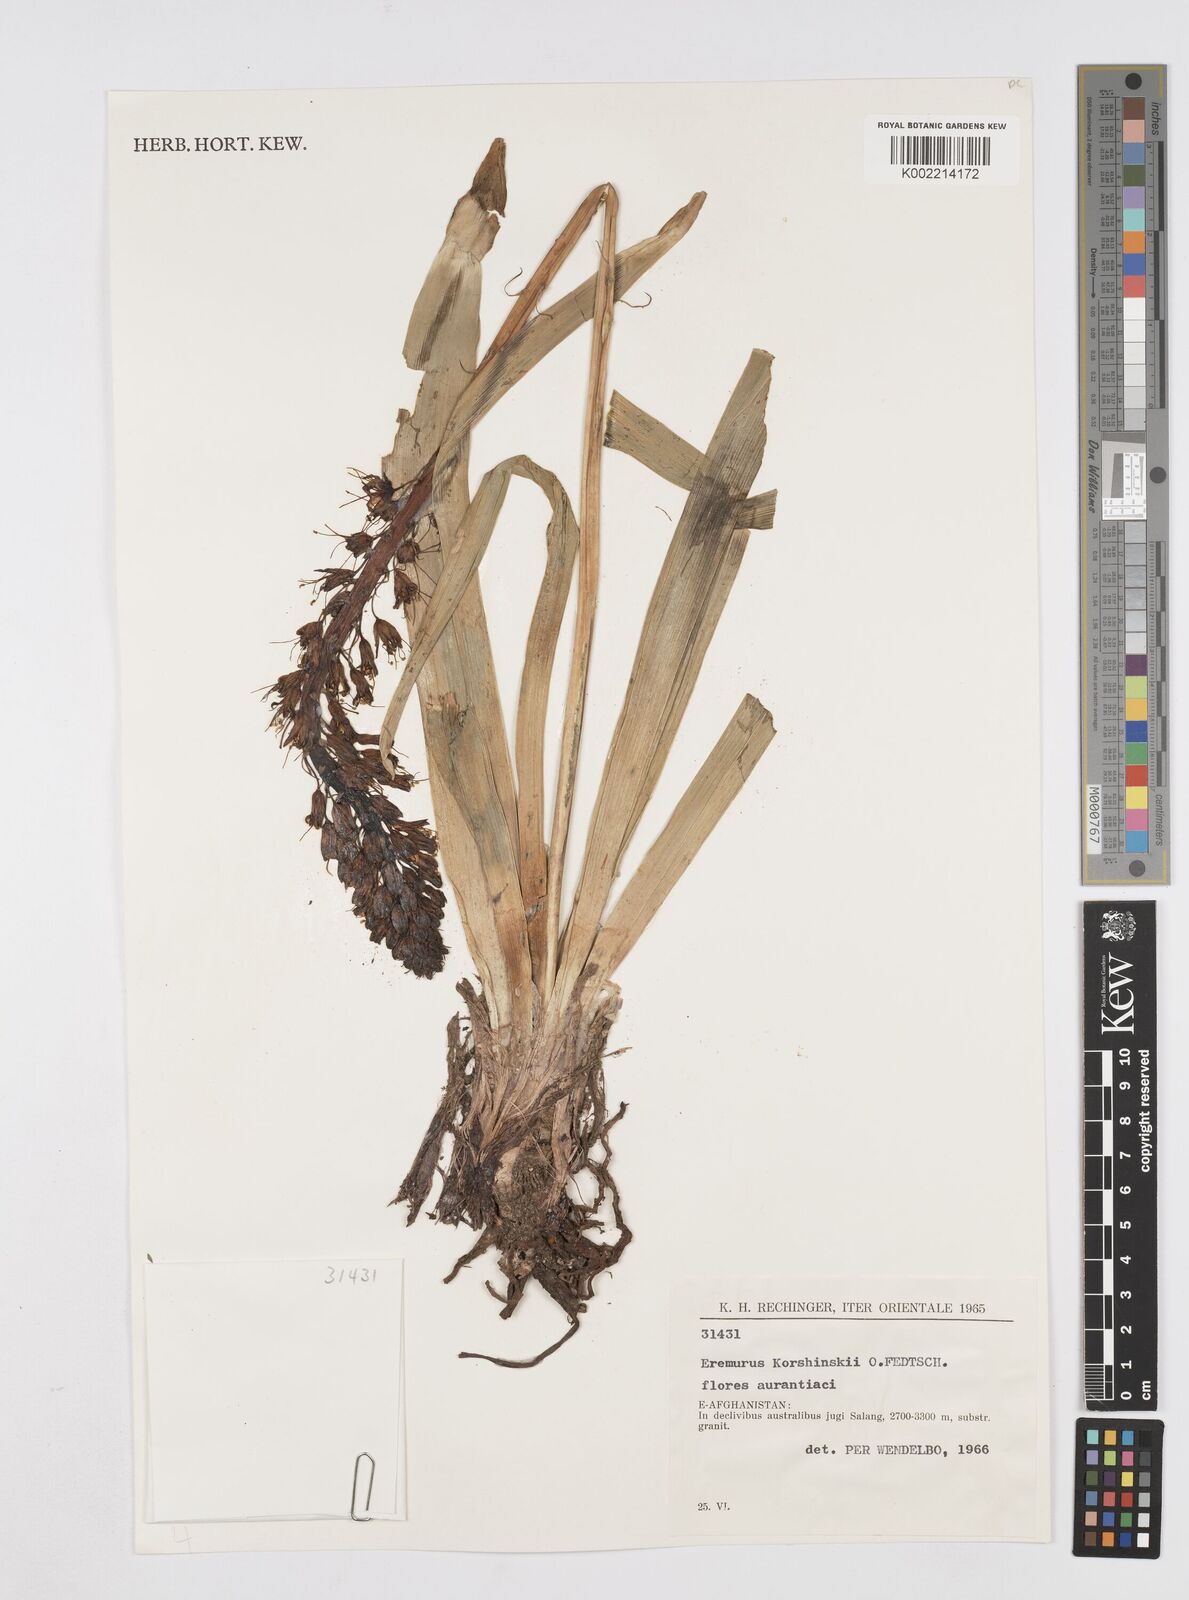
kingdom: Plantae
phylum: Tracheophyta
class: Liliopsida
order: Asparagales
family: Asphodelaceae
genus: Eremurus
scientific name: Eremurus korshinskyi
